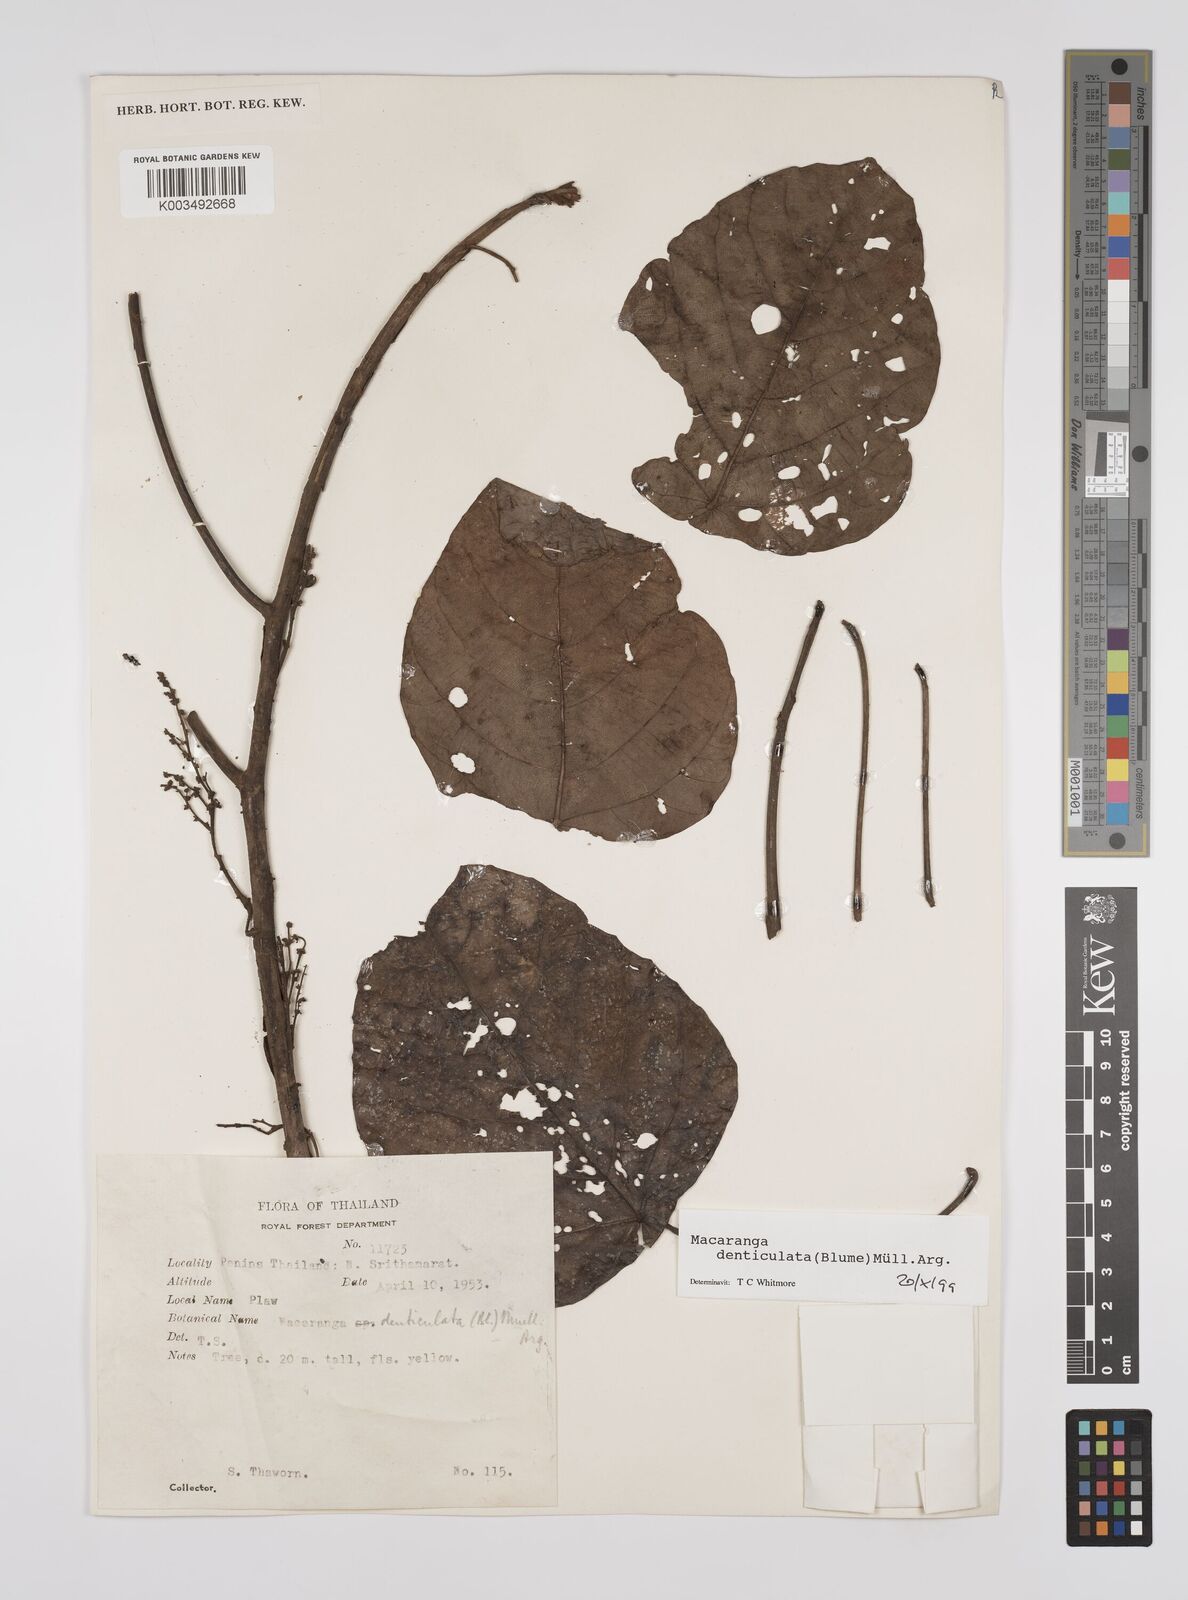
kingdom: Plantae
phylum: Tracheophyta
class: Magnoliopsida
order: Malpighiales
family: Euphorbiaceae
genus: Macaranga
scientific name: Macaranga denticulata
